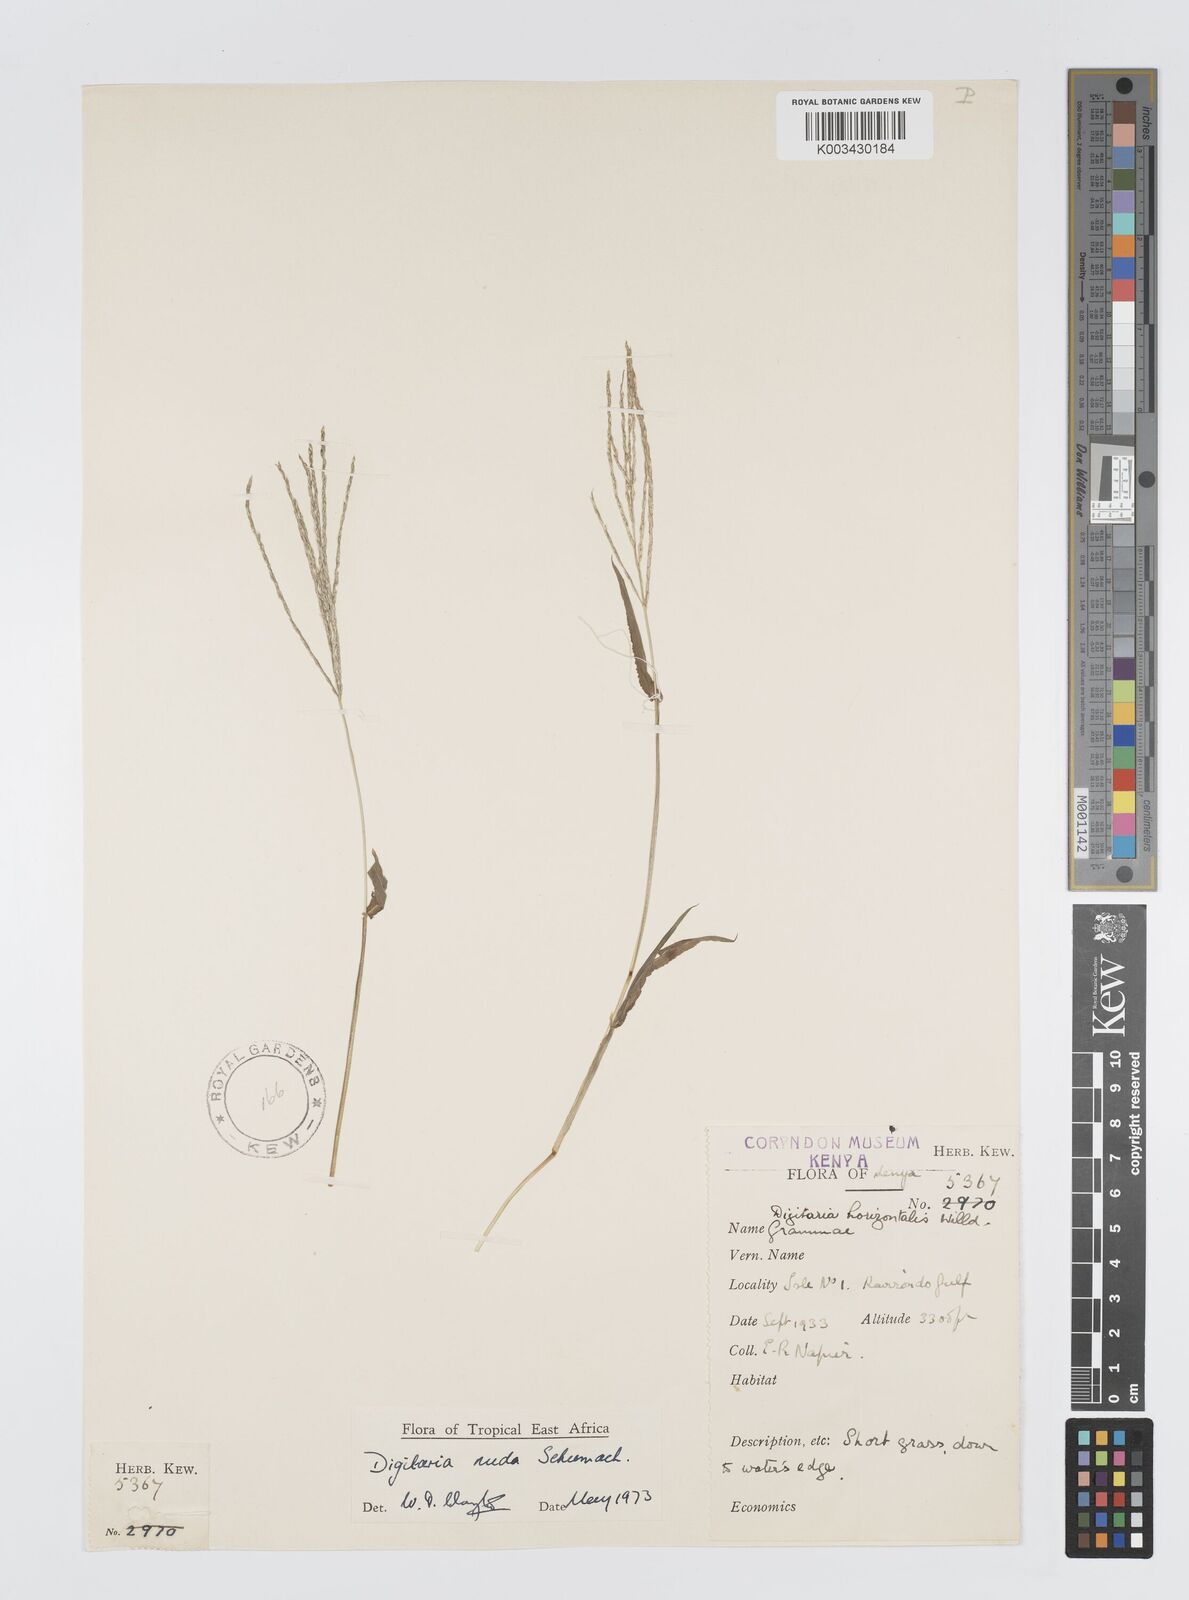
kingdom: Plantae
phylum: Tracheophyta
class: Liliopsida
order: Poales
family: Poaceae
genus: Digitaria
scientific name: Digitaria nuda
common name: Naked crabgrass
